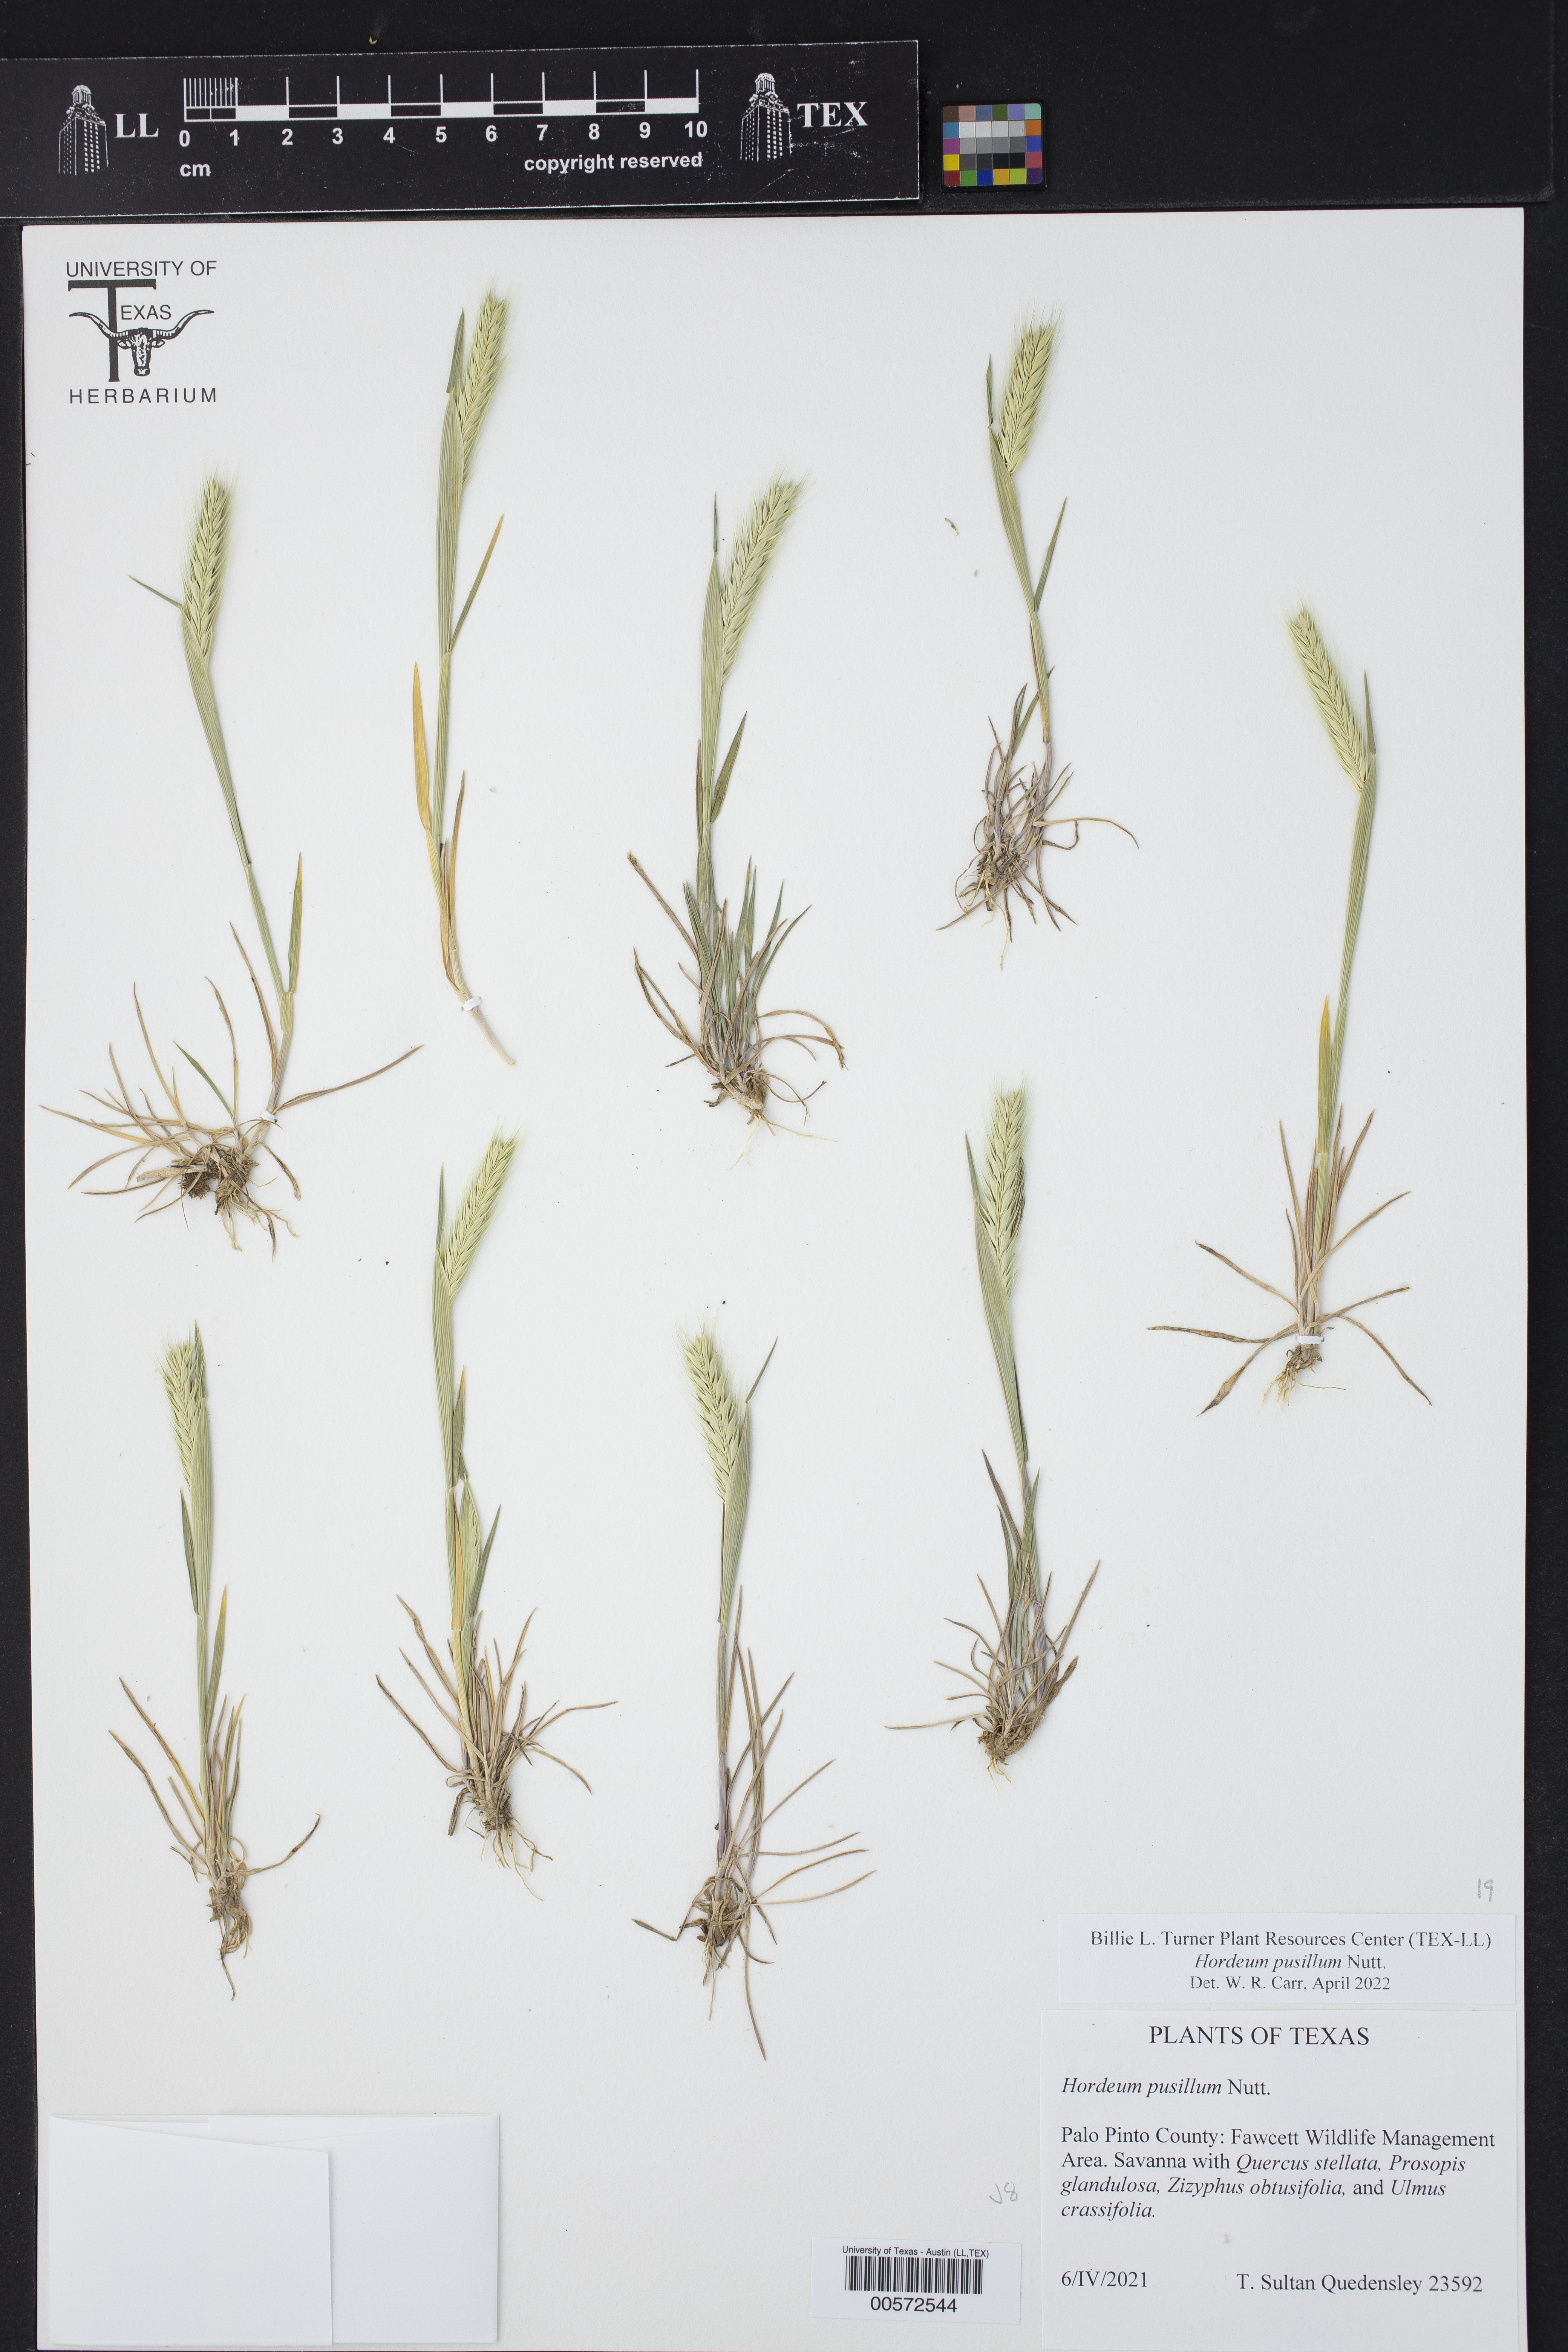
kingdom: Plantae
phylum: Tracheophyta
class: Liliopsida
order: Poales
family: Poaceae
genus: Hordeum
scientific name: Hordeum pusillum
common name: Little barley
